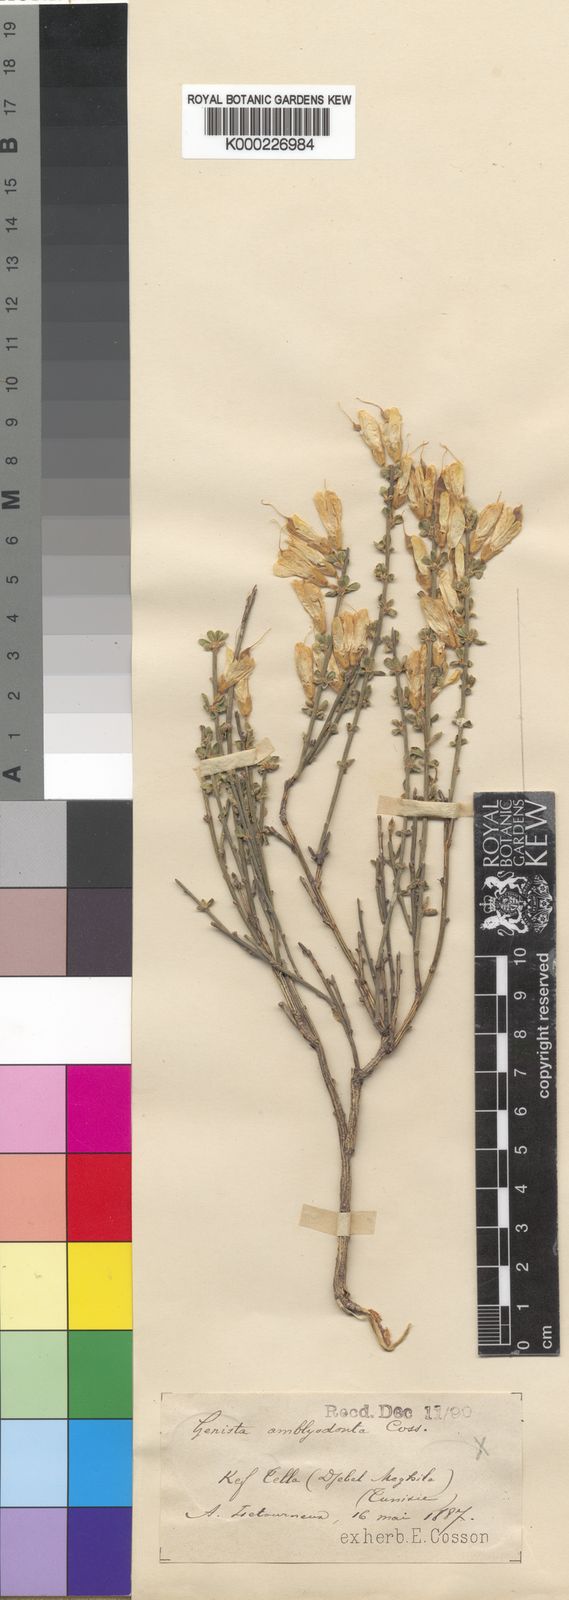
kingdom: Plantae
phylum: Tracheophyta
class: Magnoliopsida
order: Fabales
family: Fabaceae
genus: Genista
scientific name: Genista cinerea
